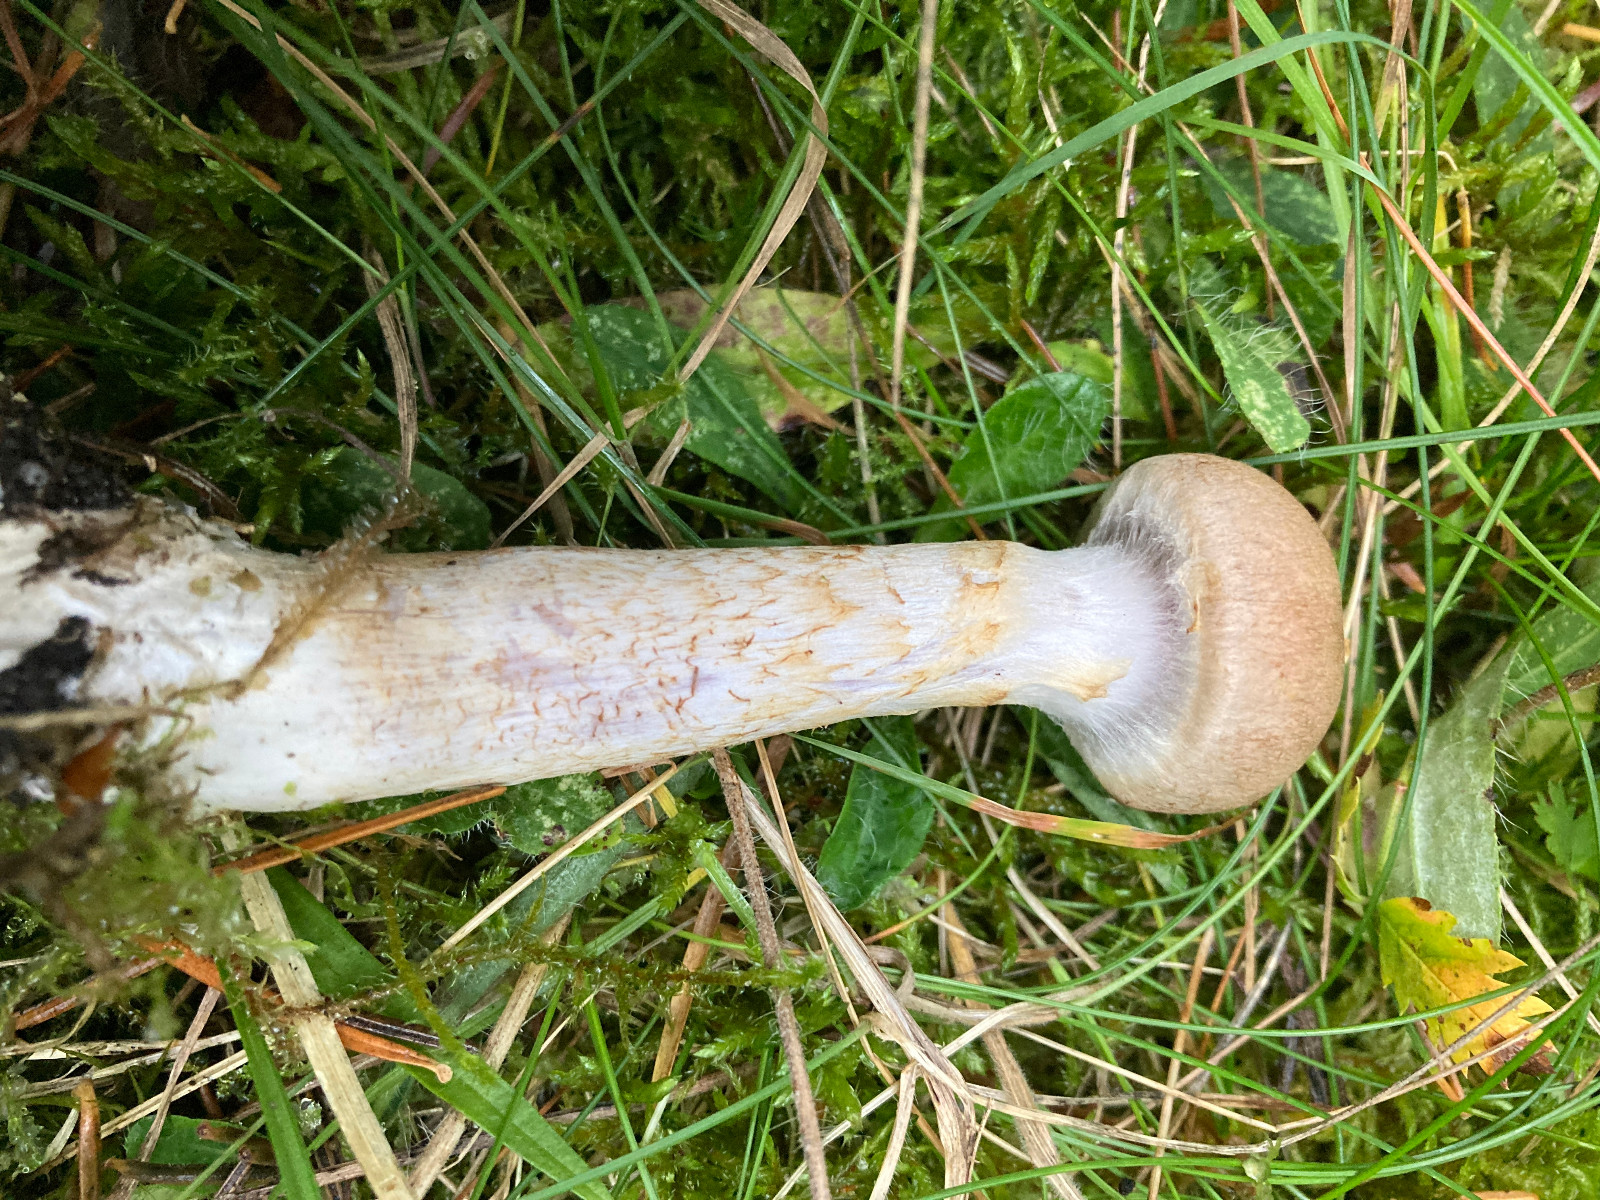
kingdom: Fungi
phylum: Basidiomycota
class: Agaricomycetes
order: Agaricales
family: Cortinariaceae
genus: Cortinarius
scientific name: Cortinarius
